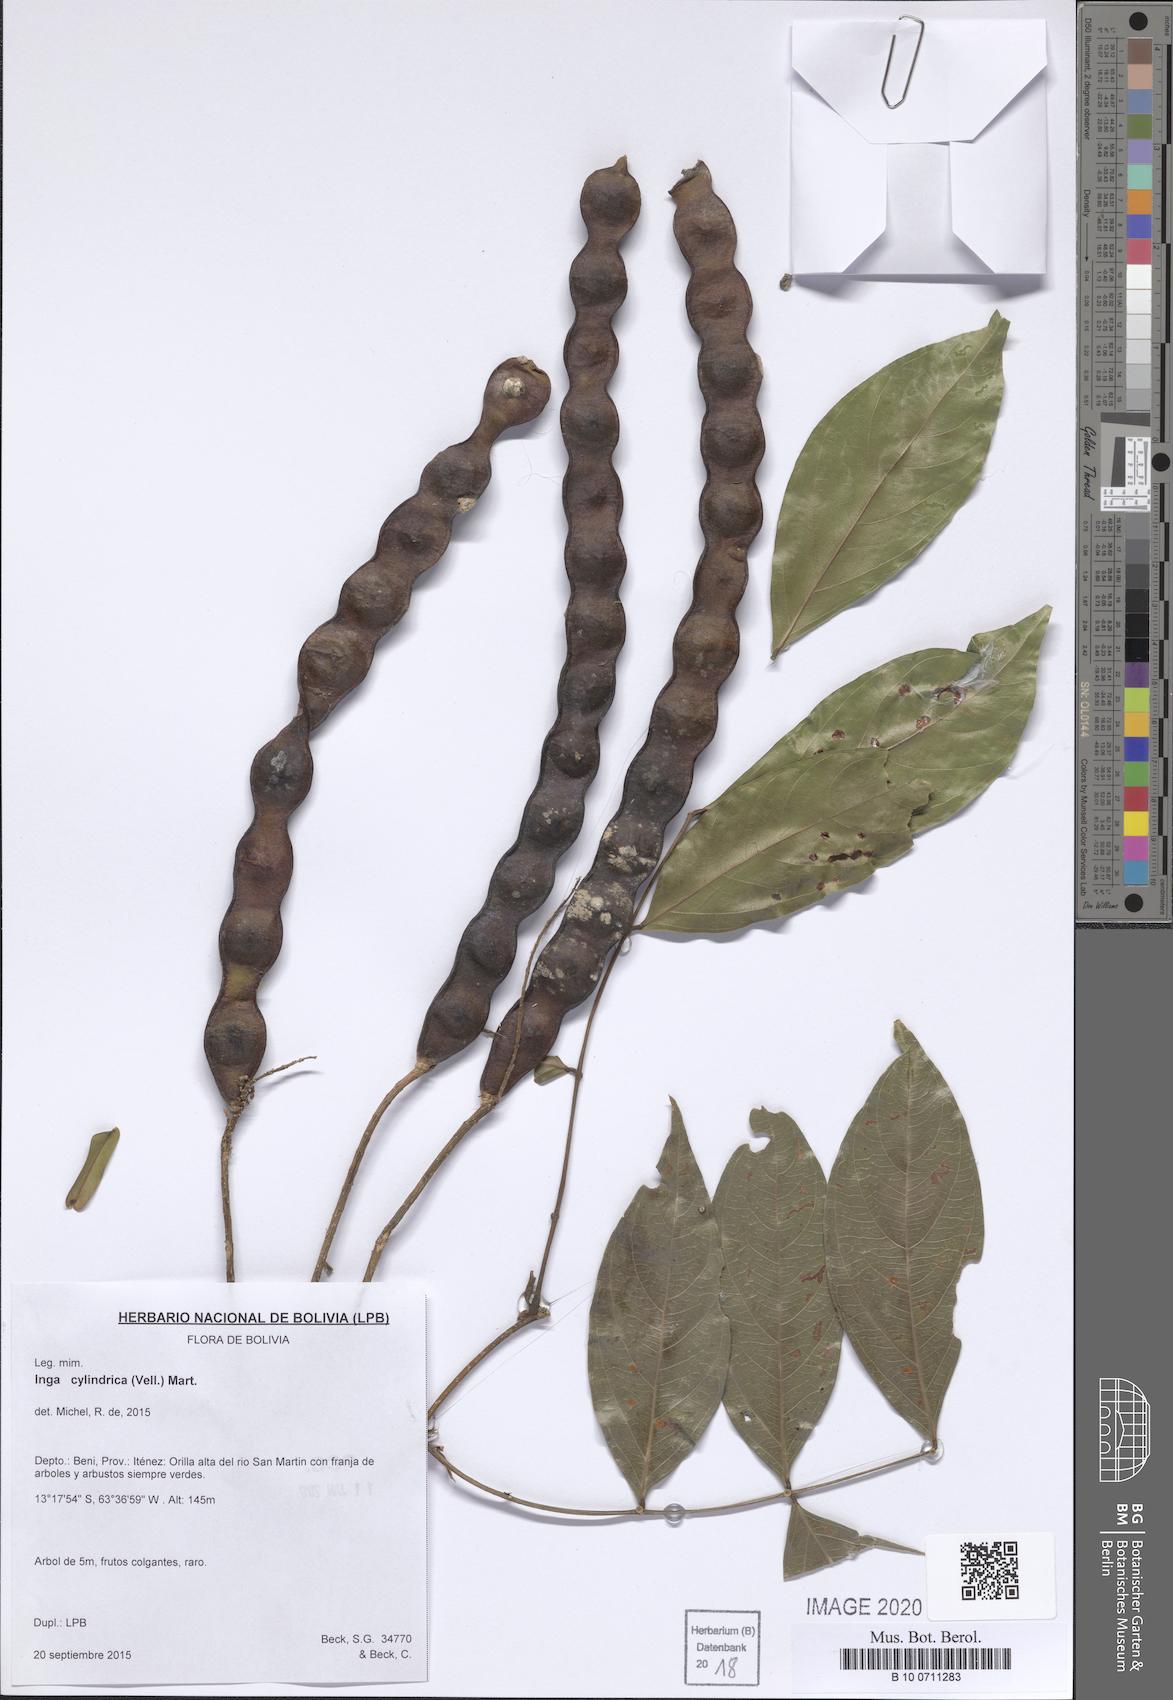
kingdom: Plantae
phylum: Tracheophyta
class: Magnoliopsida
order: Fabales
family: Fabaceae
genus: Inga
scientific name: Inga cylindrica
